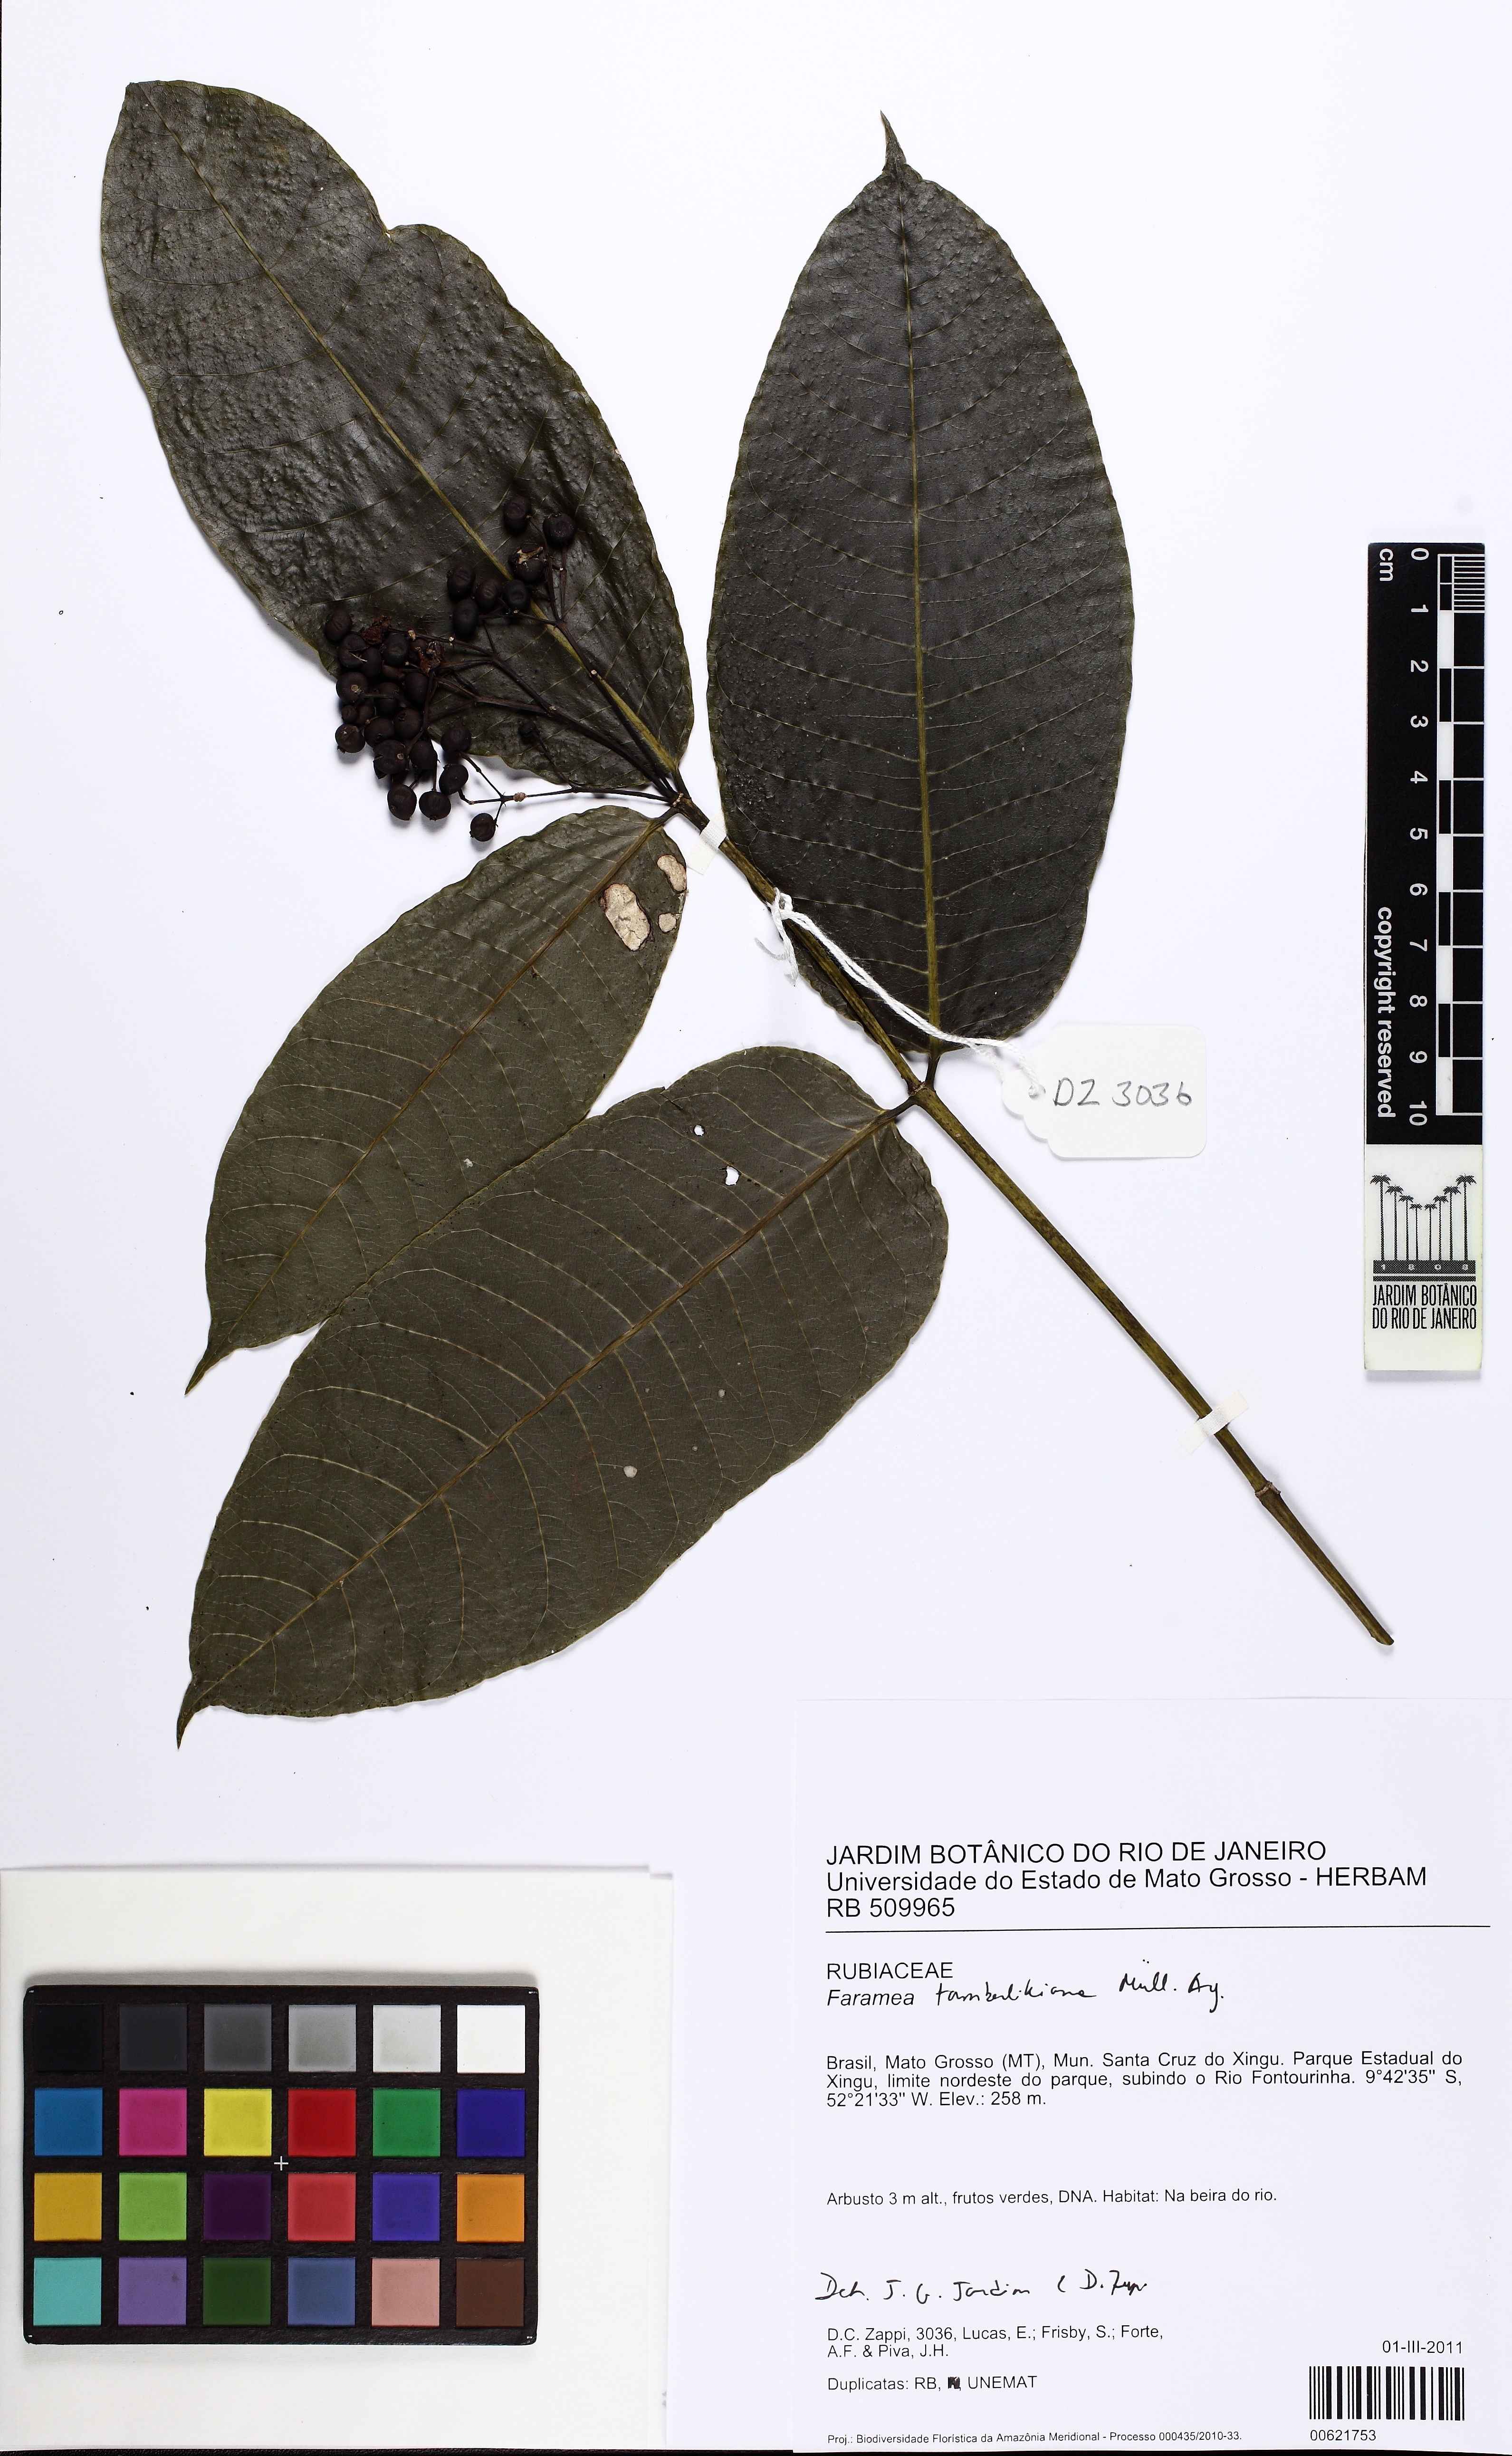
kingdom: Plantae
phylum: Tracheophyta
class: Magnoliopsida
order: Gentianales
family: Rubiaceae
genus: Faramea
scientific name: Faramea tamberlikiana
